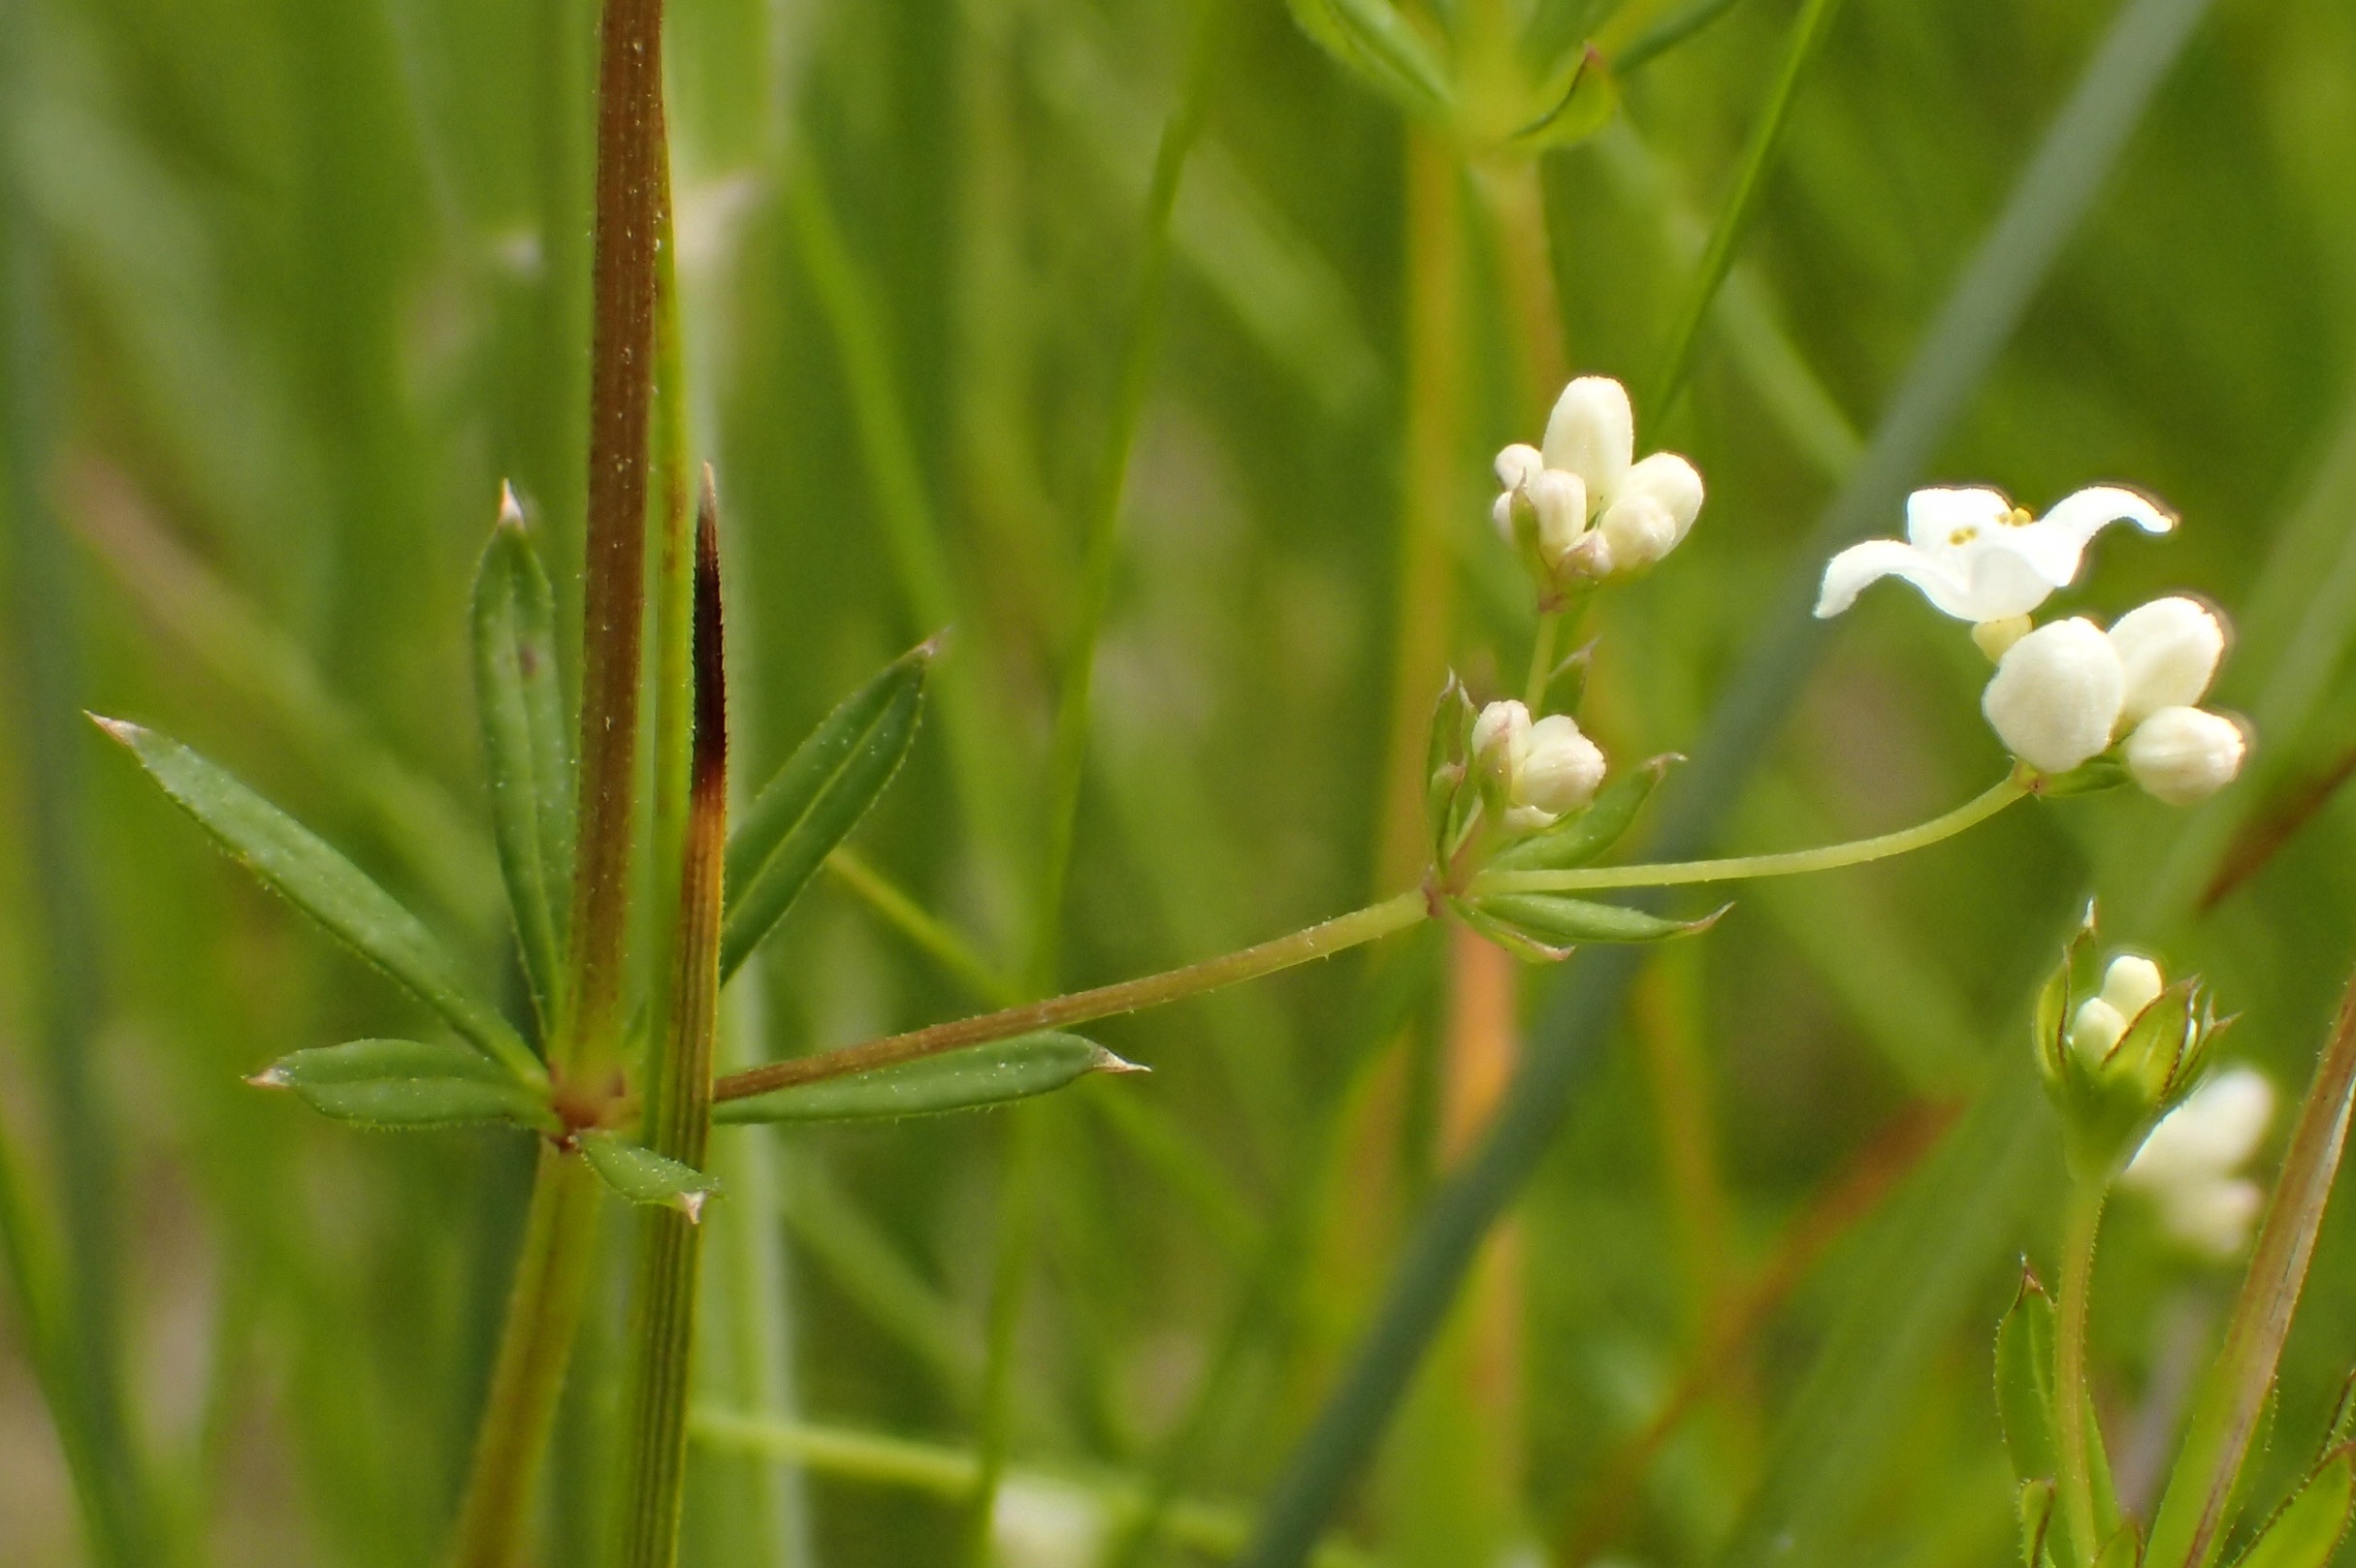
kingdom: Plantae
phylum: Tracheophyta
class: Magnoliopsida
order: Gentianales
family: Rubiaceae
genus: Galium
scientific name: Galium uliginosum
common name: Sump-snerre
